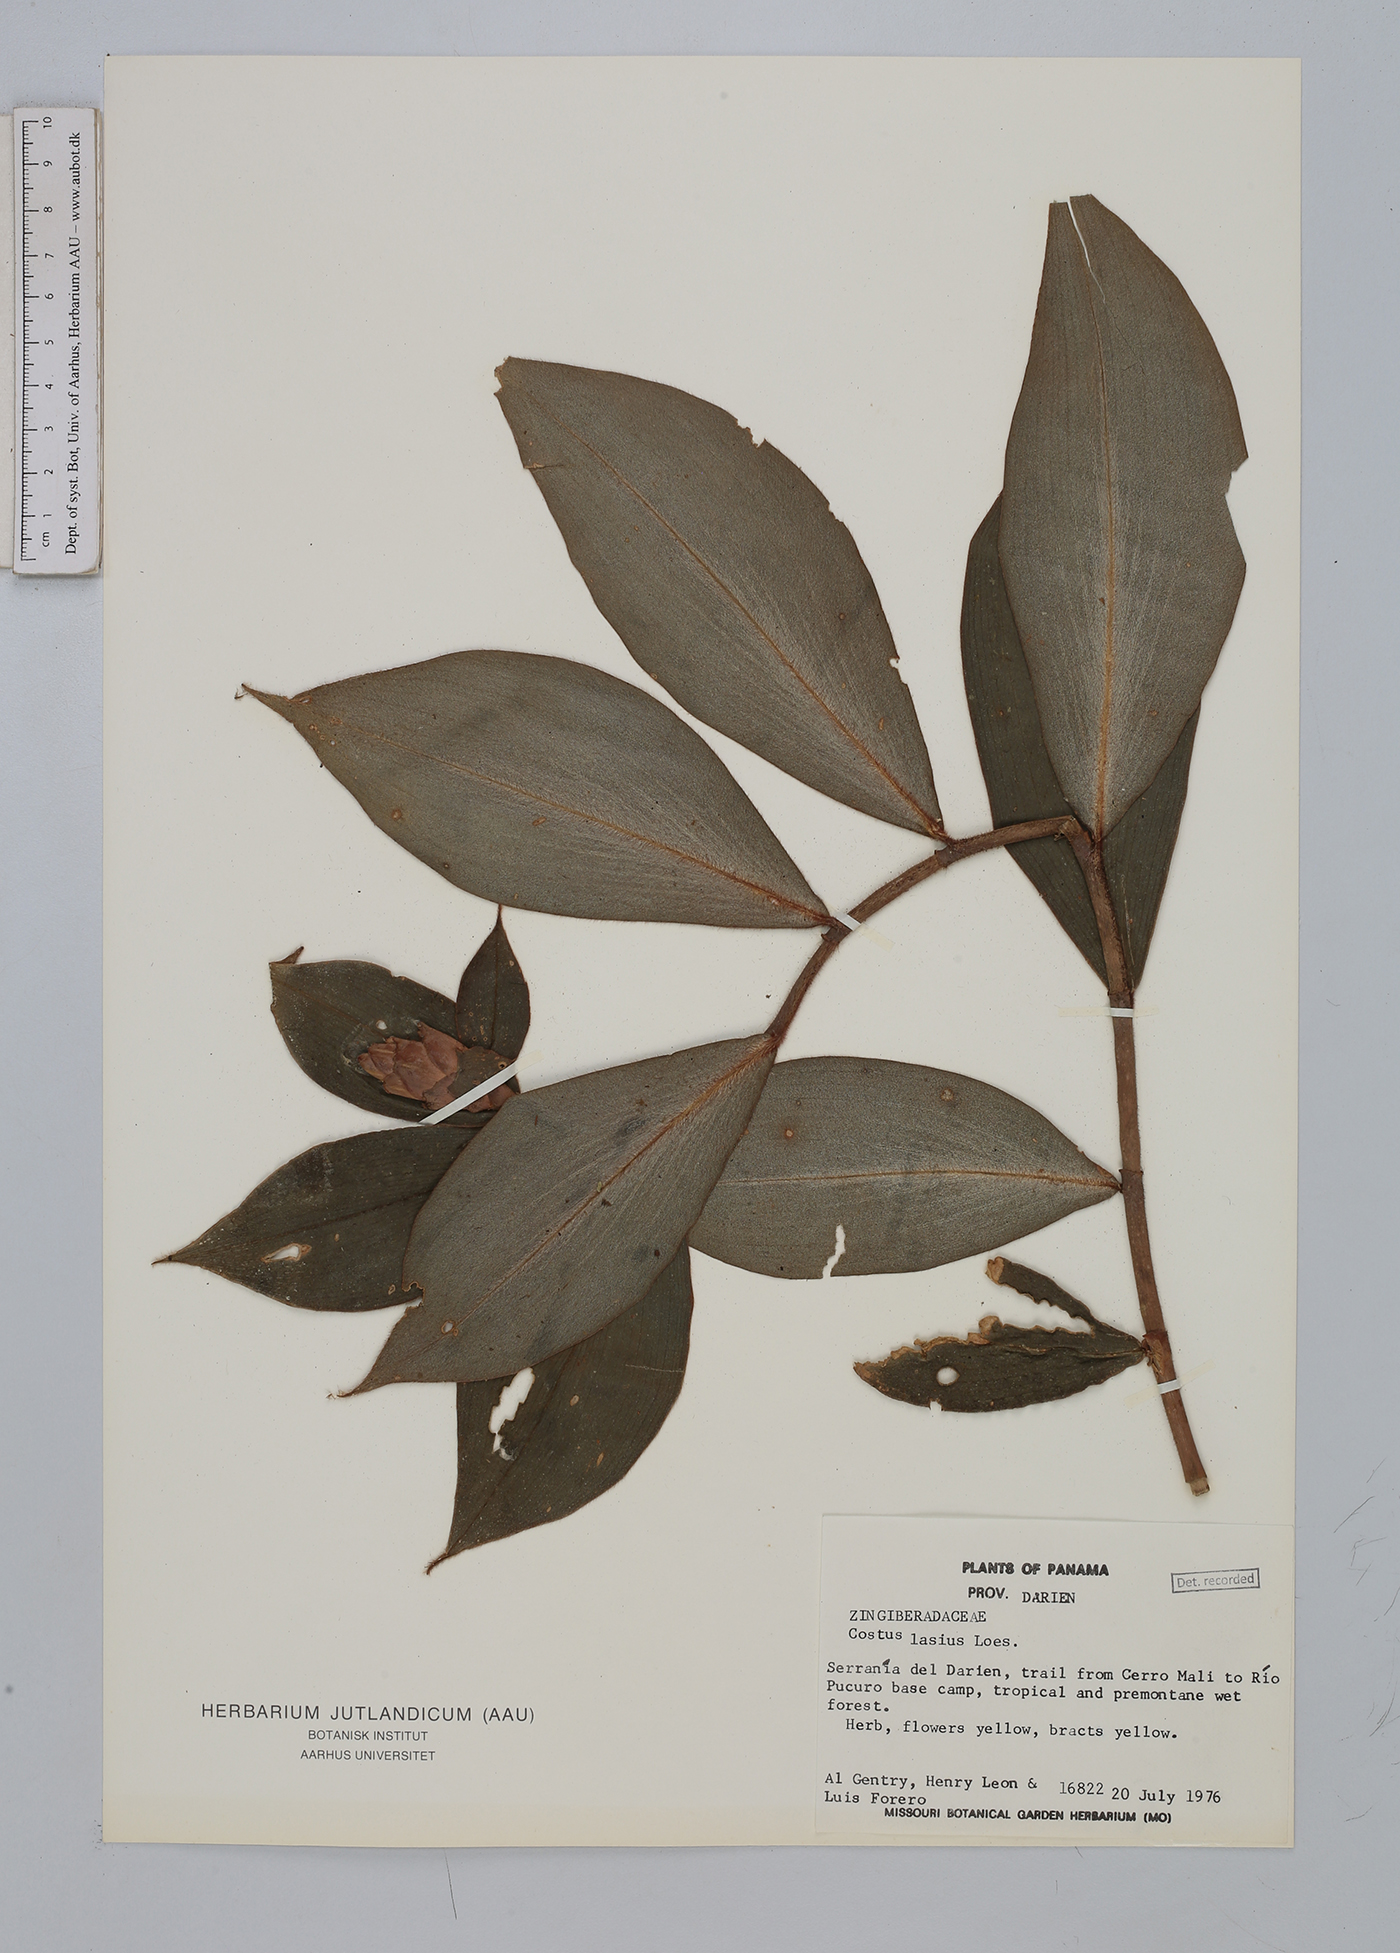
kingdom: Plantae
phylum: Tracheophyta
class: Liliopsida
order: Zingiberales
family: Costaceae
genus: Costus
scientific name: Costus lasius
